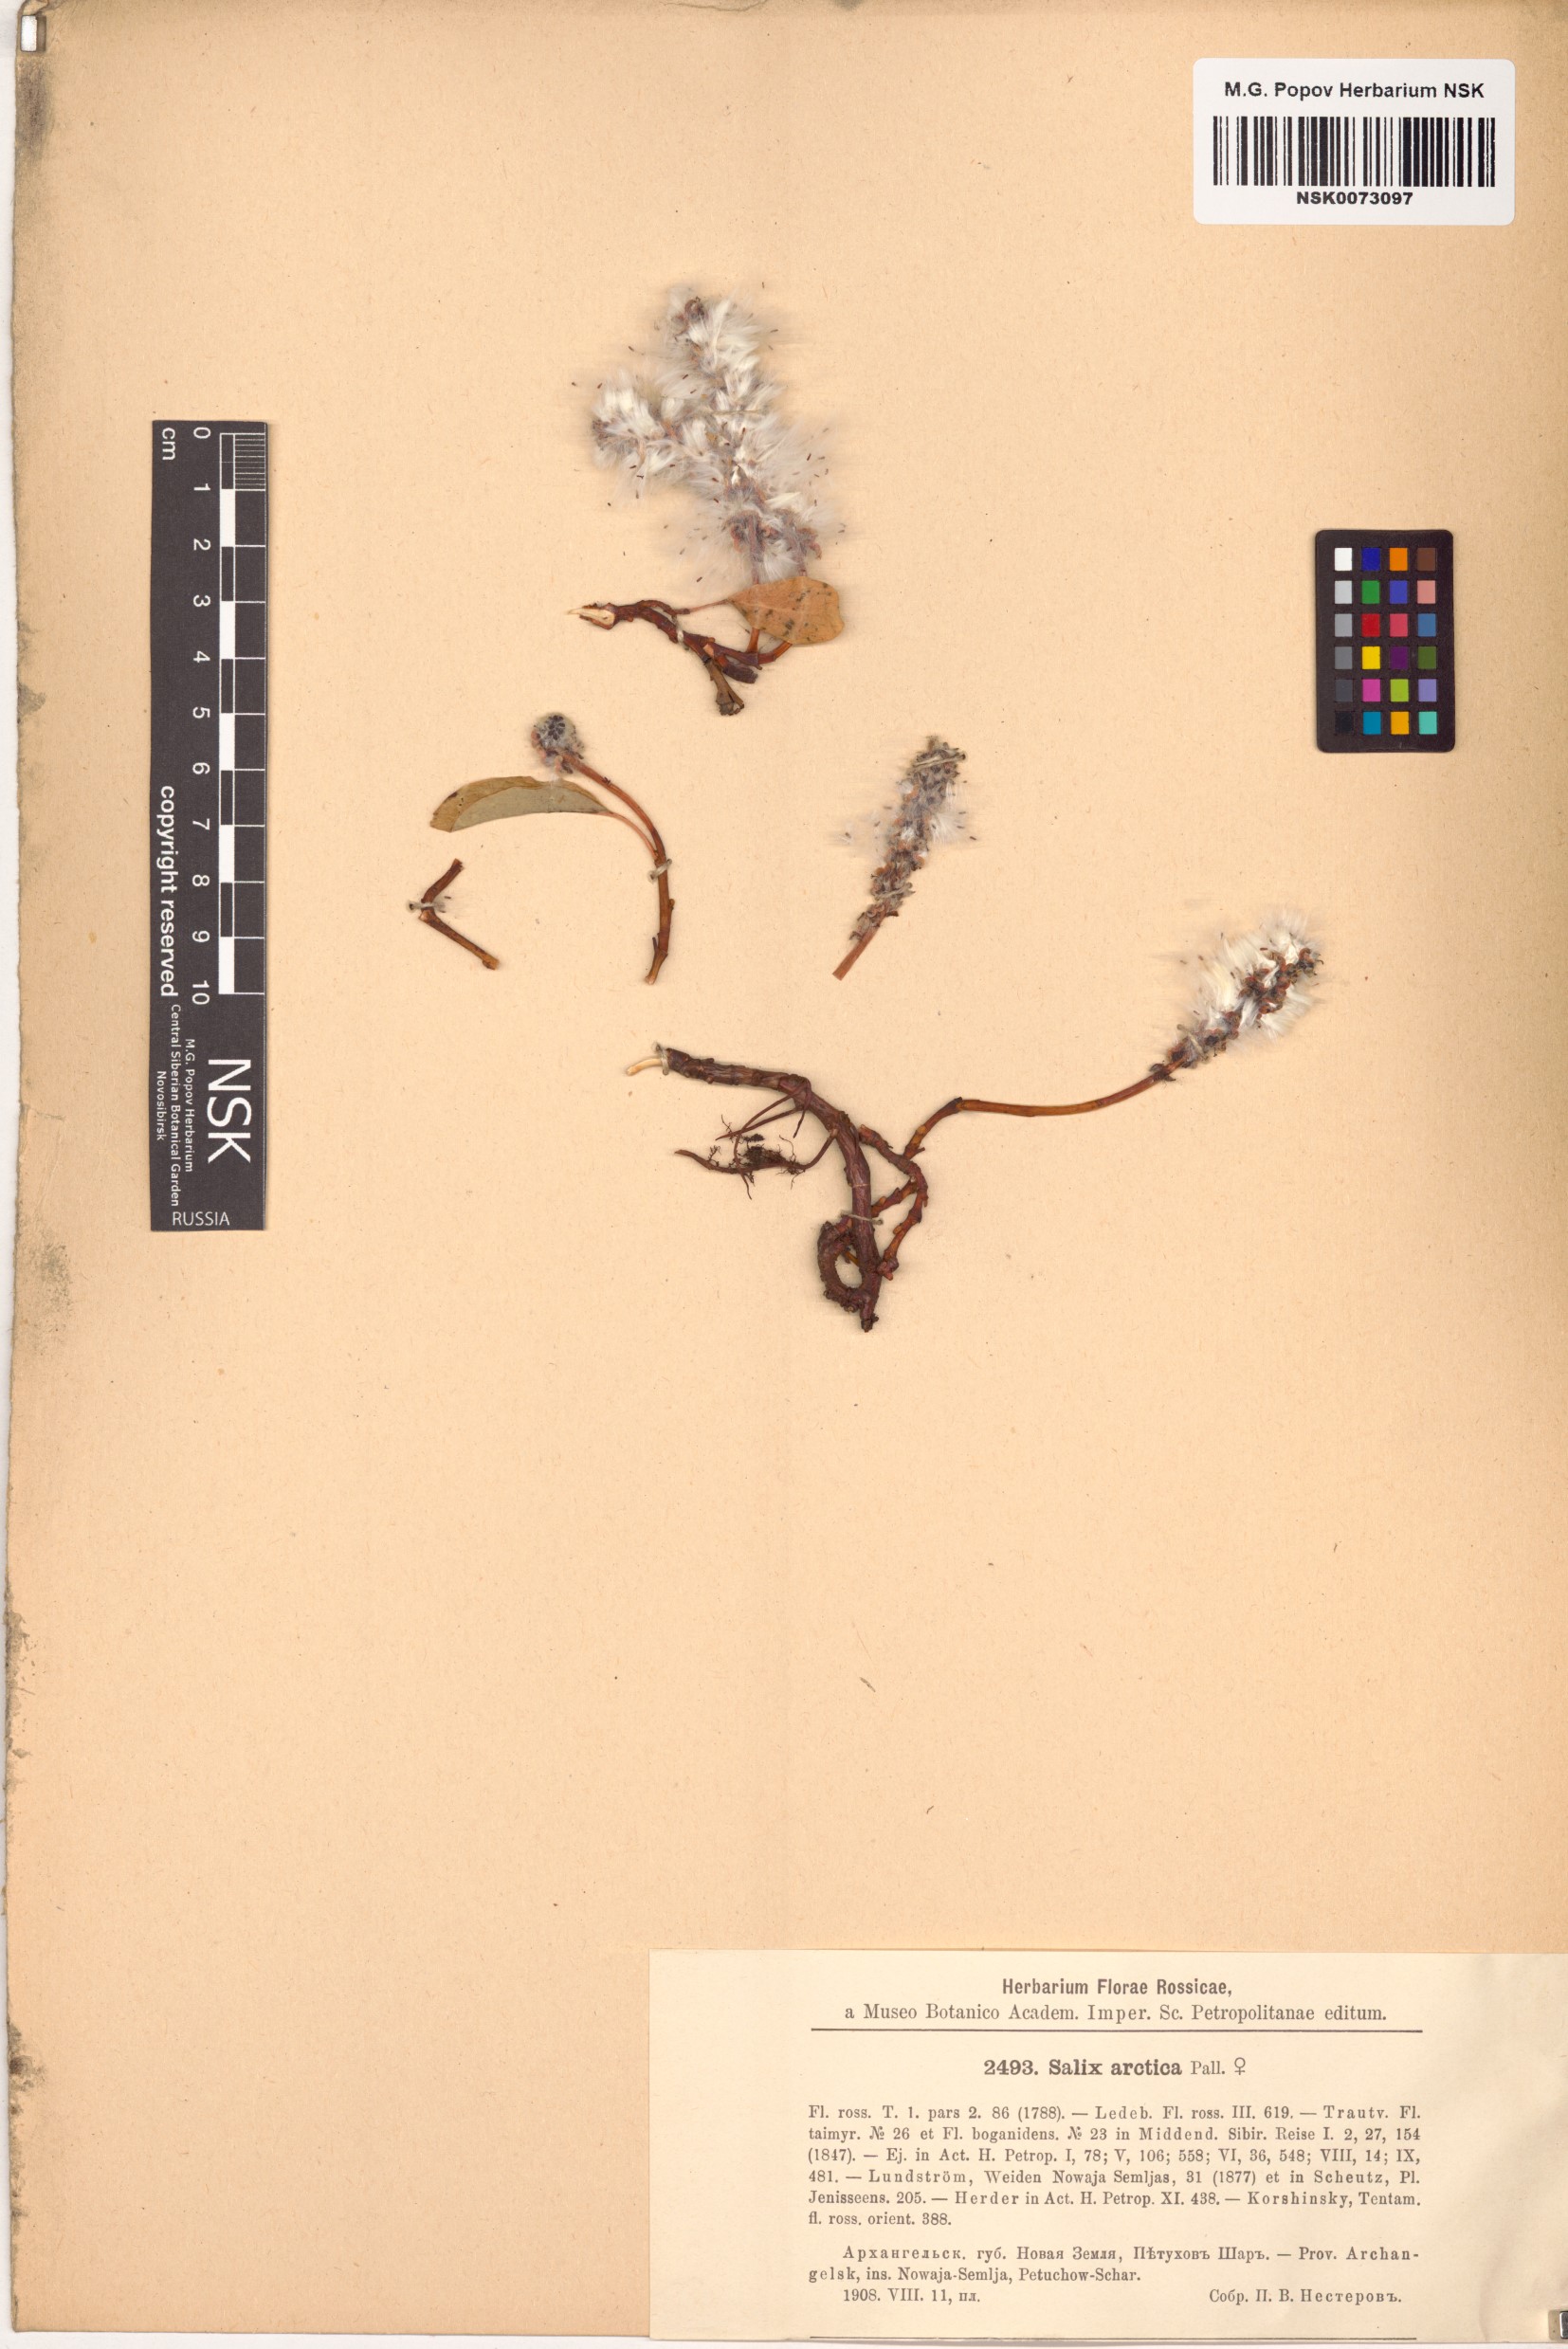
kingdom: Plantae
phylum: Tracheophyta
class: Magnoliopsida
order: Malpighiales
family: Salicaceae
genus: Salix
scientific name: Salix arctica
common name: Arctic willow
